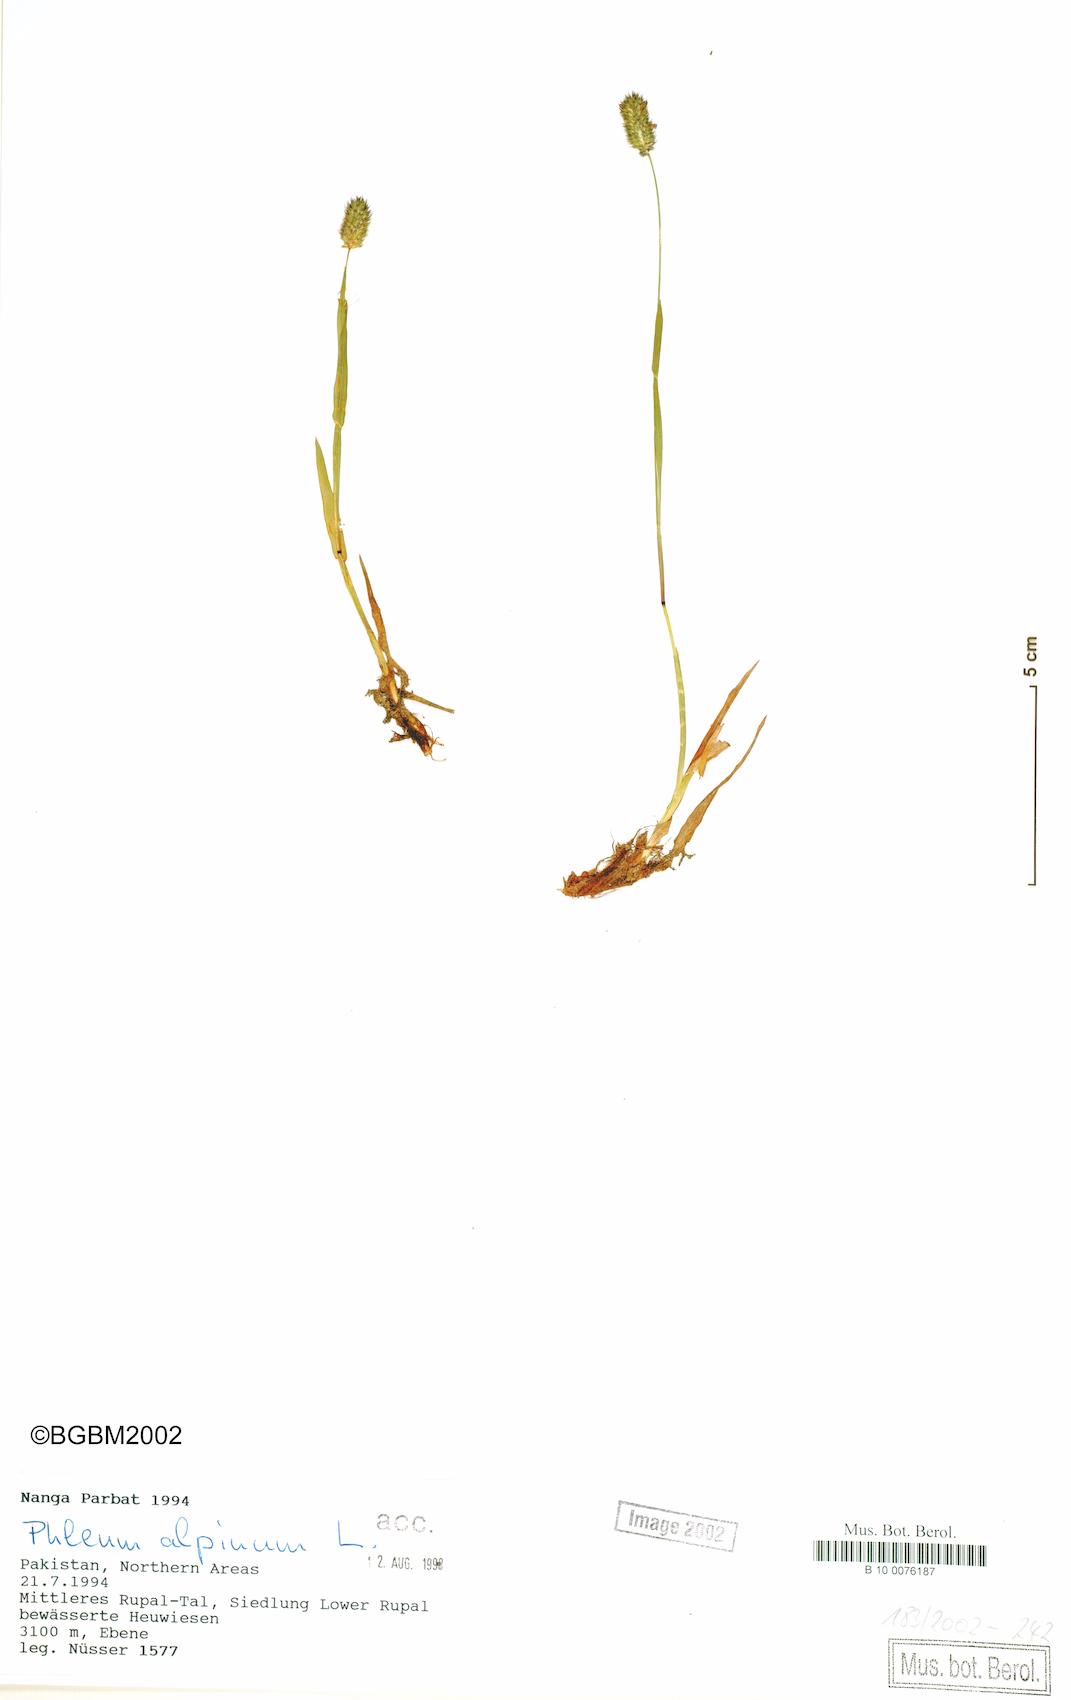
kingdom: Plantae
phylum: Tracheophyta
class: Liliopsida
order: Poales
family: Poaceae
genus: Phleum
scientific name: Phleum alpinum
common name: Alpine cat's-tail
